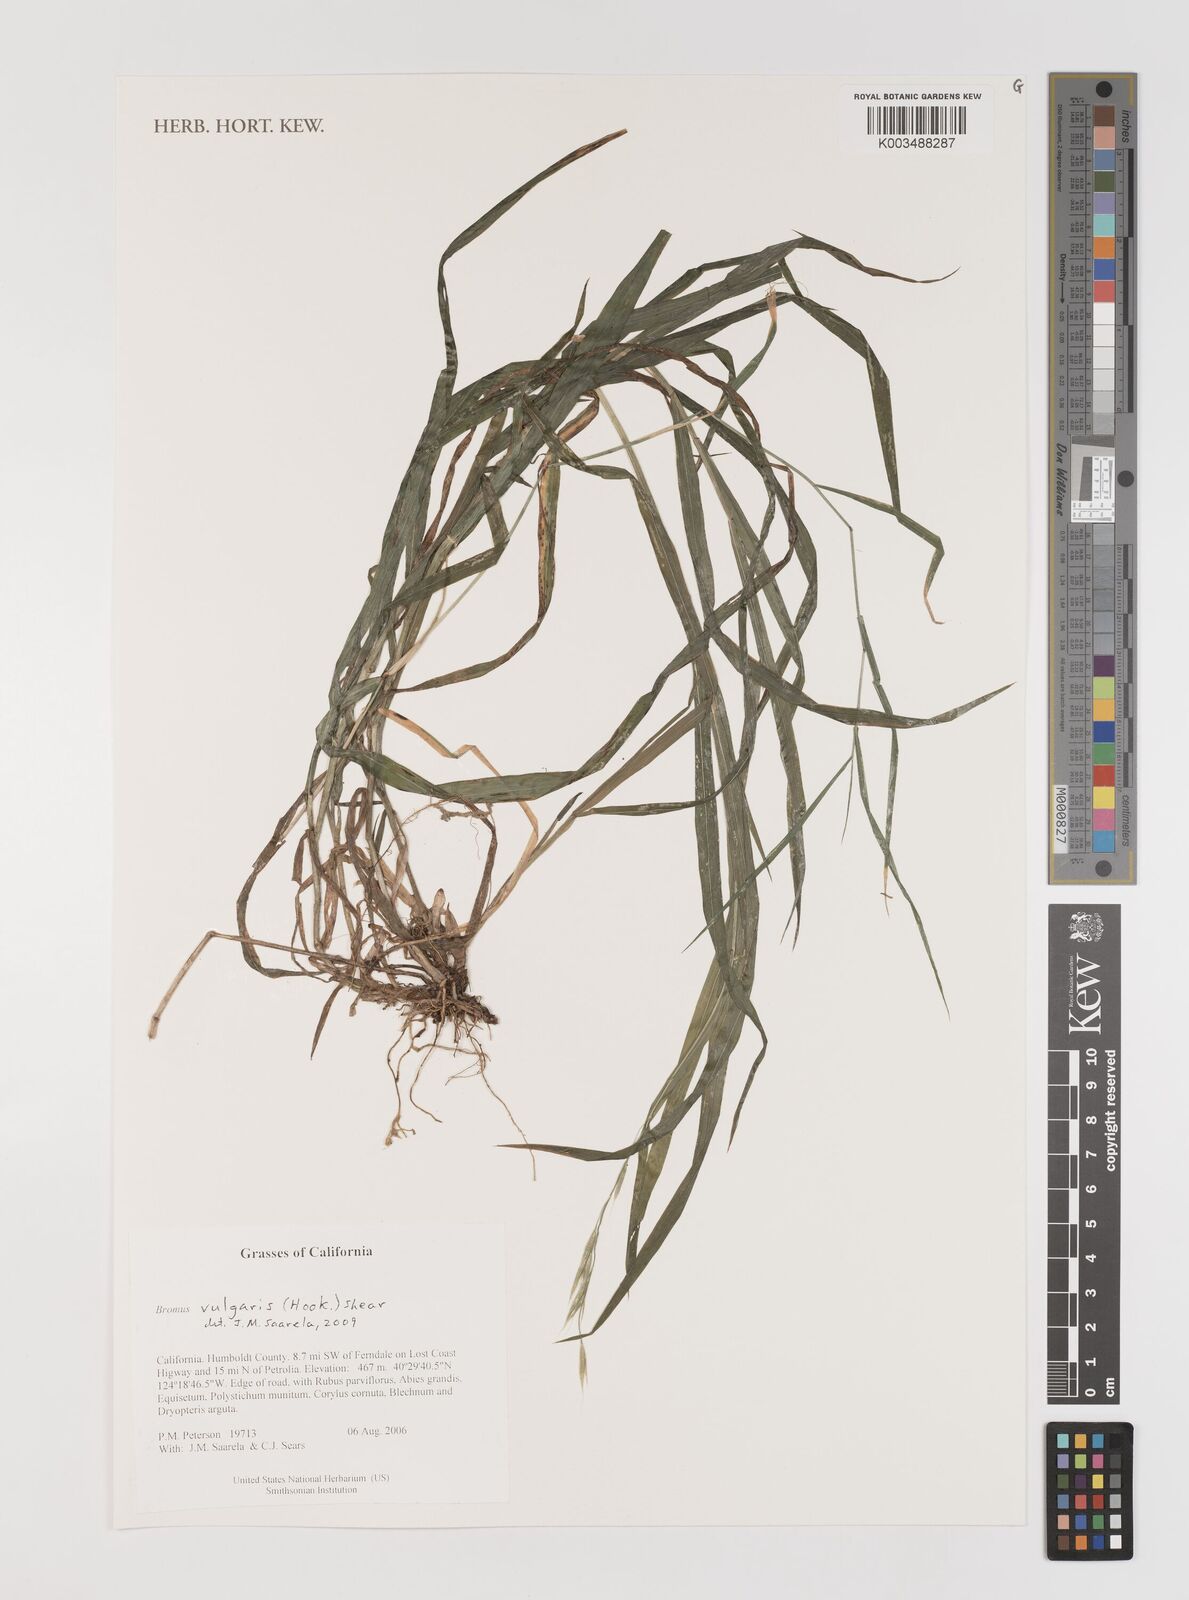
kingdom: Plantae
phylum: Tracheophyta
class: Liliopsida
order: Poales
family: Poaceae
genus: Bromus
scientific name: Bromus vulgaris
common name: Columbia brome
